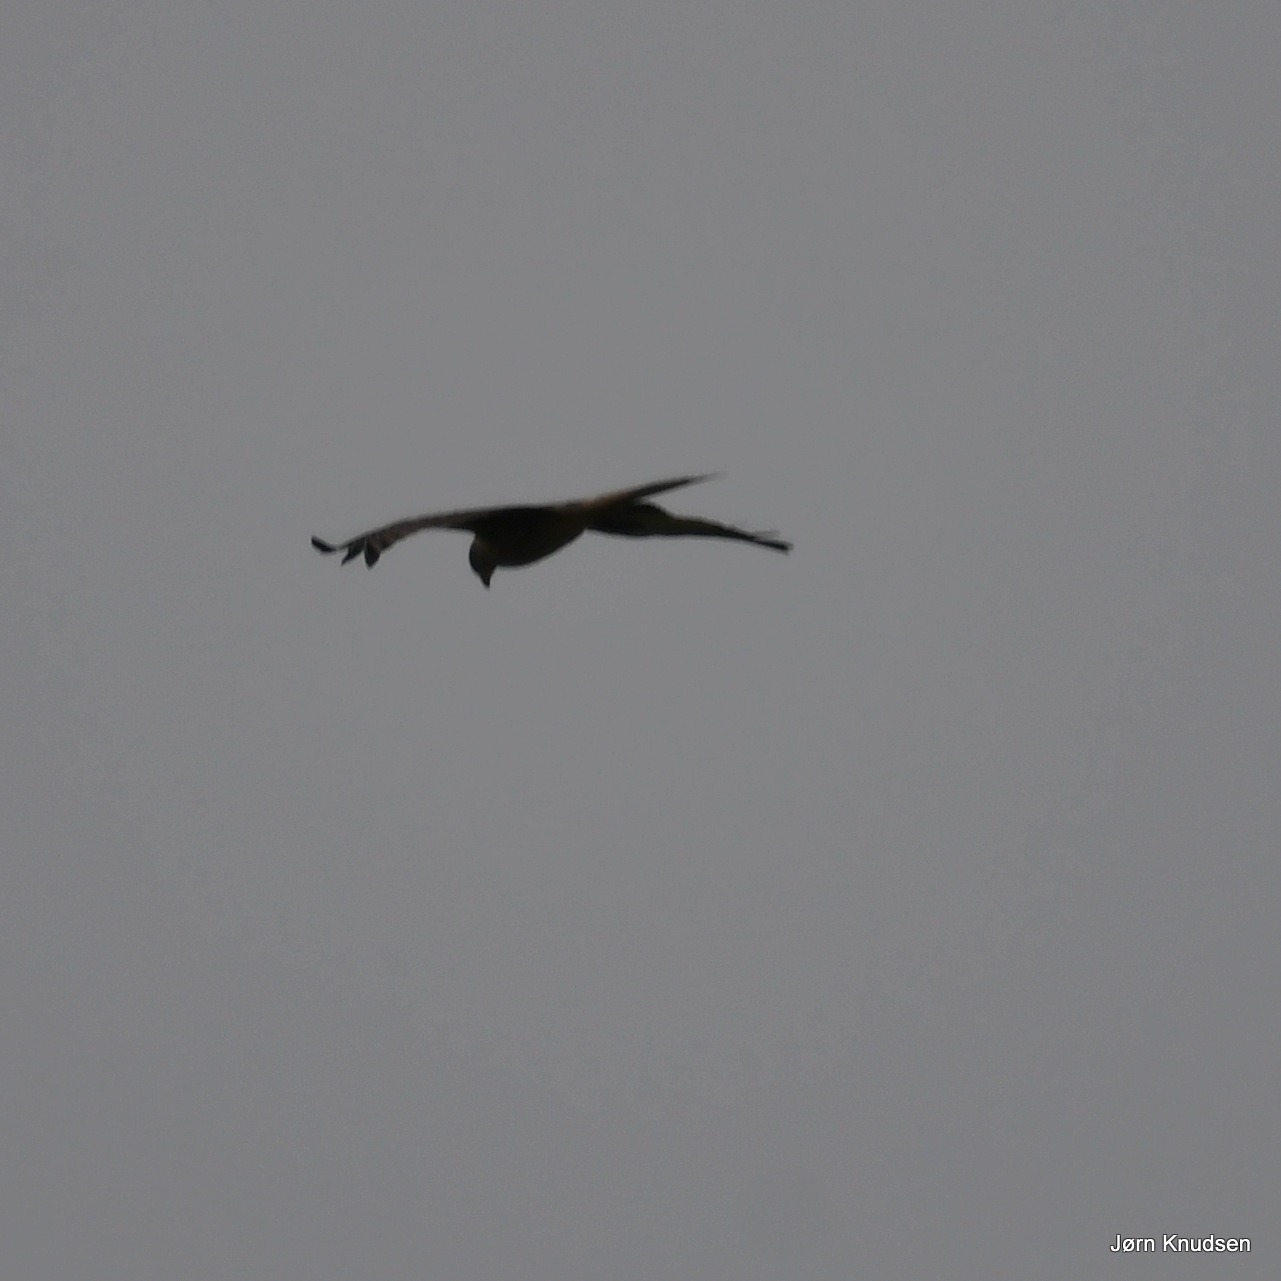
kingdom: Animalia
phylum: Chordata
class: Aves
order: Accipitriformes
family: Accipitridae
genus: Milvus
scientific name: Milvus milvus
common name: Rød glente
